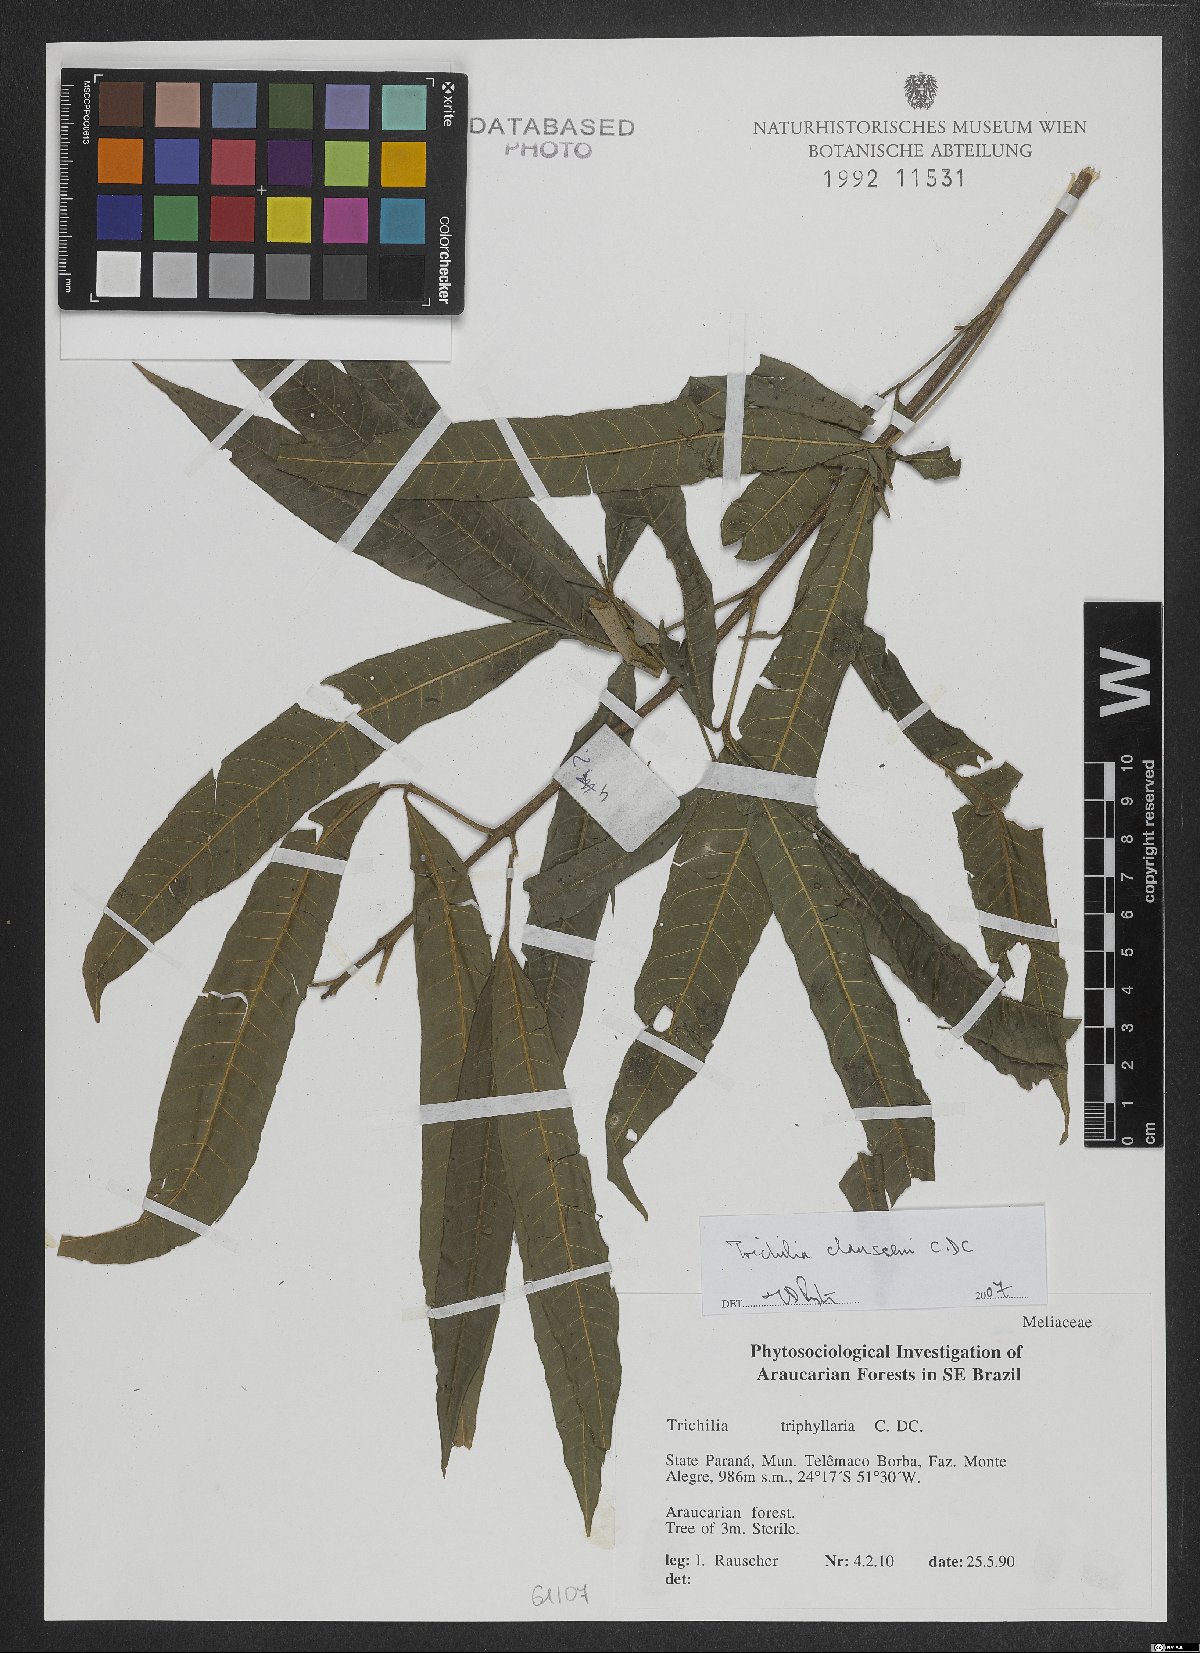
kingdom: Plantae
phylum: Tracheophyta
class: Magnoliopsida
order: Sapindales
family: Meliaceae
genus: Trichilia
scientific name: Trichilia claussenii
